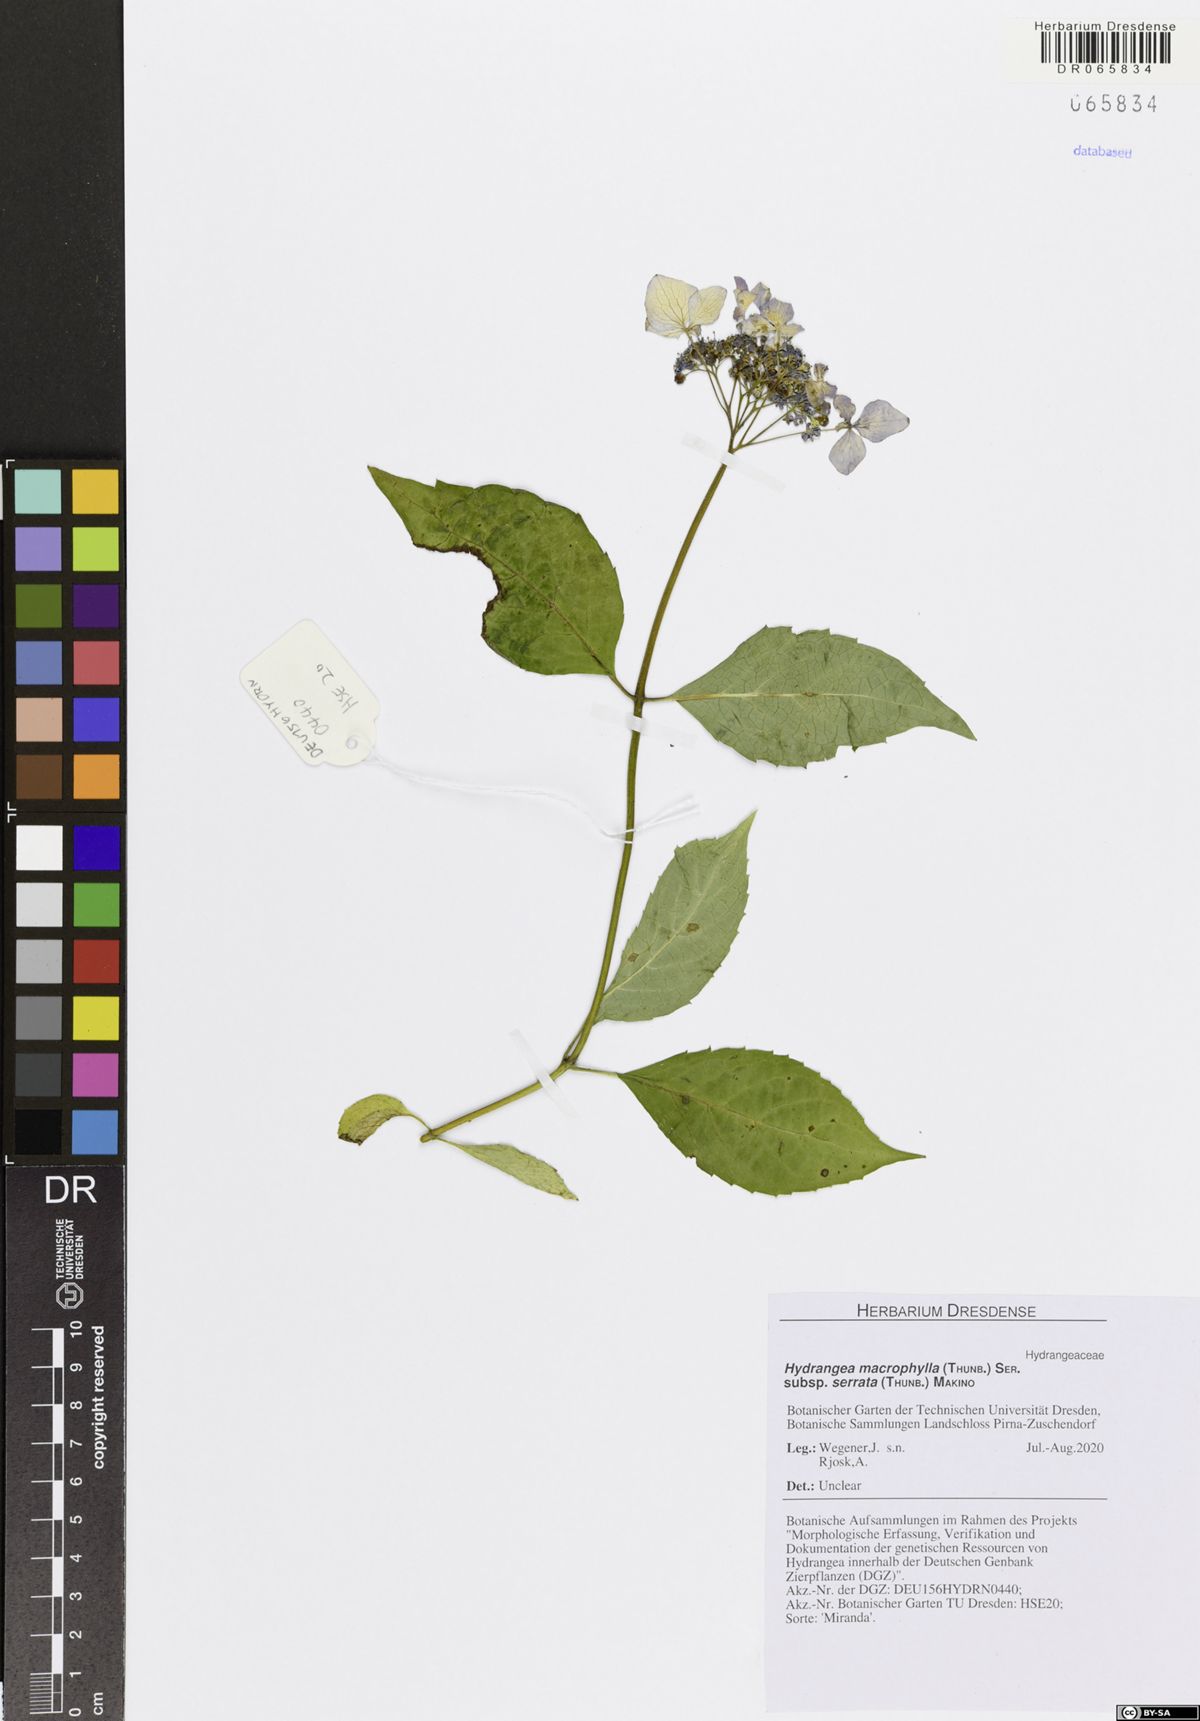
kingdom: Plantae
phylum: Tracheophyta
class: Magnoliopsida
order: Cornales
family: Hydrangeaceae
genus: Hydrangea
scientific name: Hydrangea serrata
